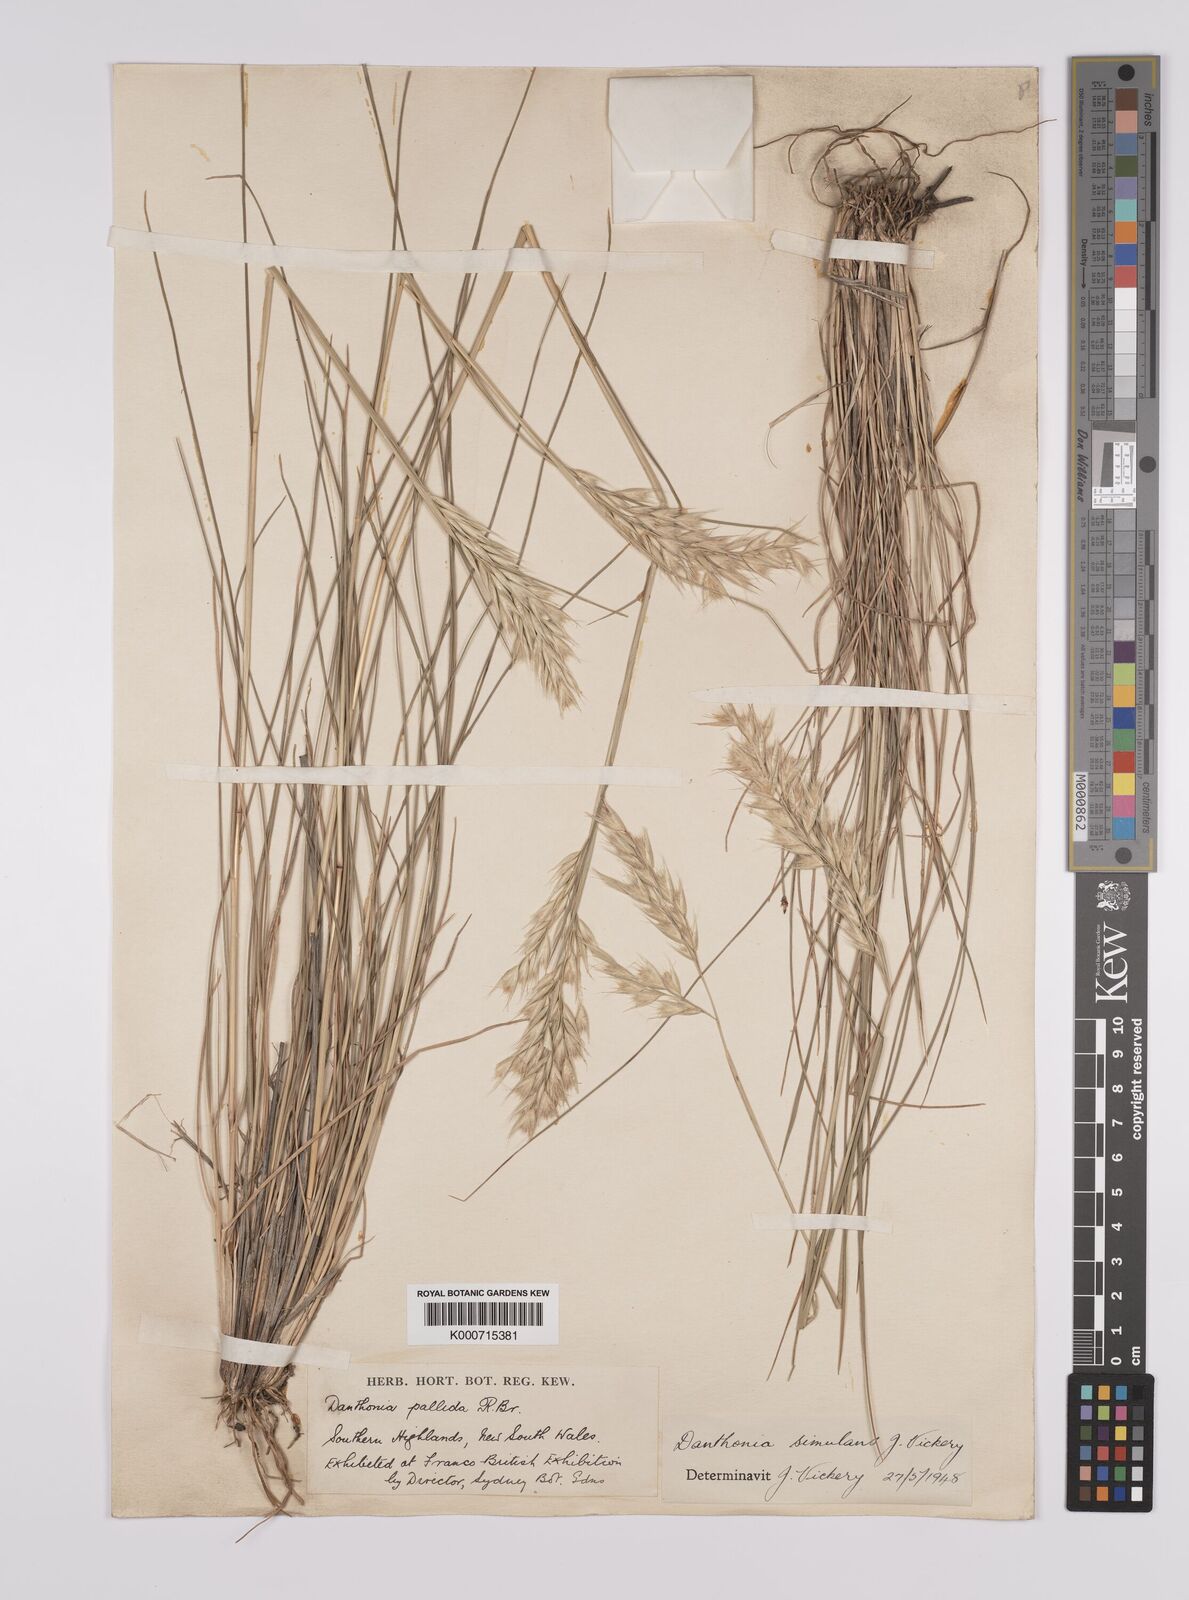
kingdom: Plantae
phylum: Tracheophyta
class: Liliopsida
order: Poales
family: Poaceae
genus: Rytidosperma
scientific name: Rytidosperma bipartitum
